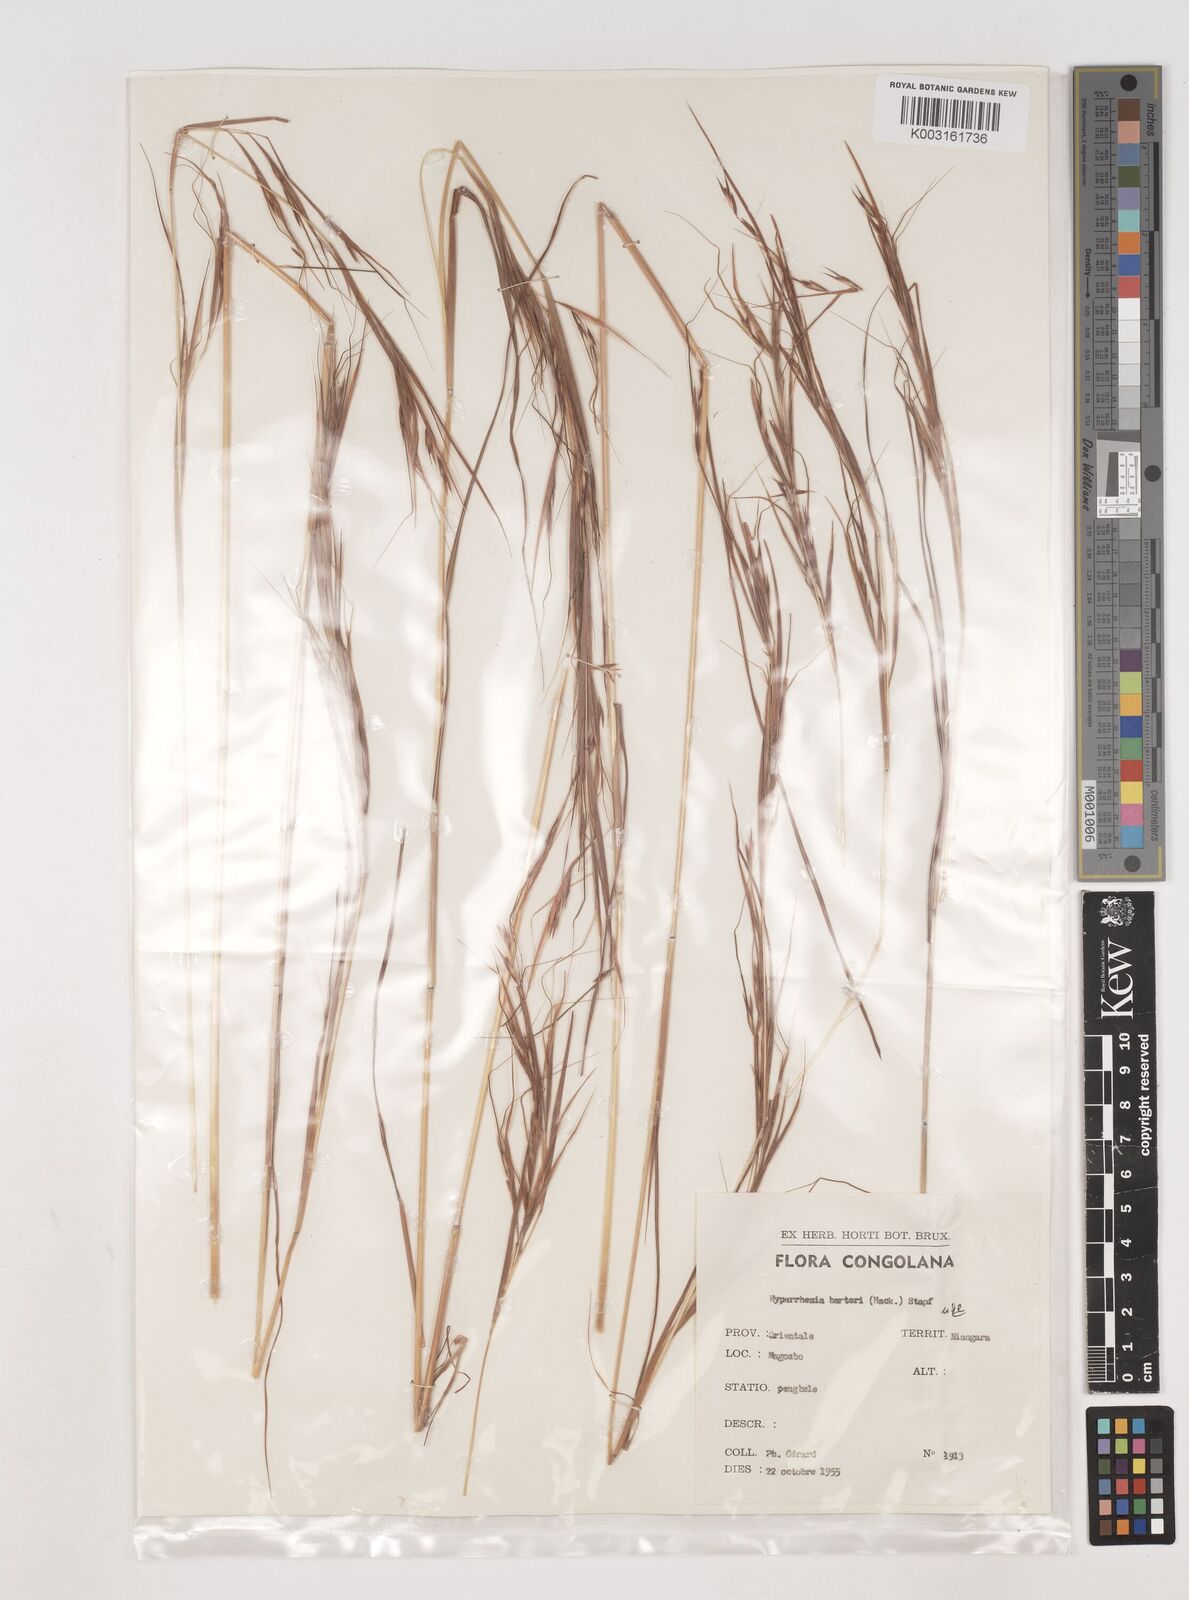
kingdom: Plantae
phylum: Tracheophyta
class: Liliopsida
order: Poales
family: Poaceae
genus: Hyparrhenia
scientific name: Hyparrhenia barteri
